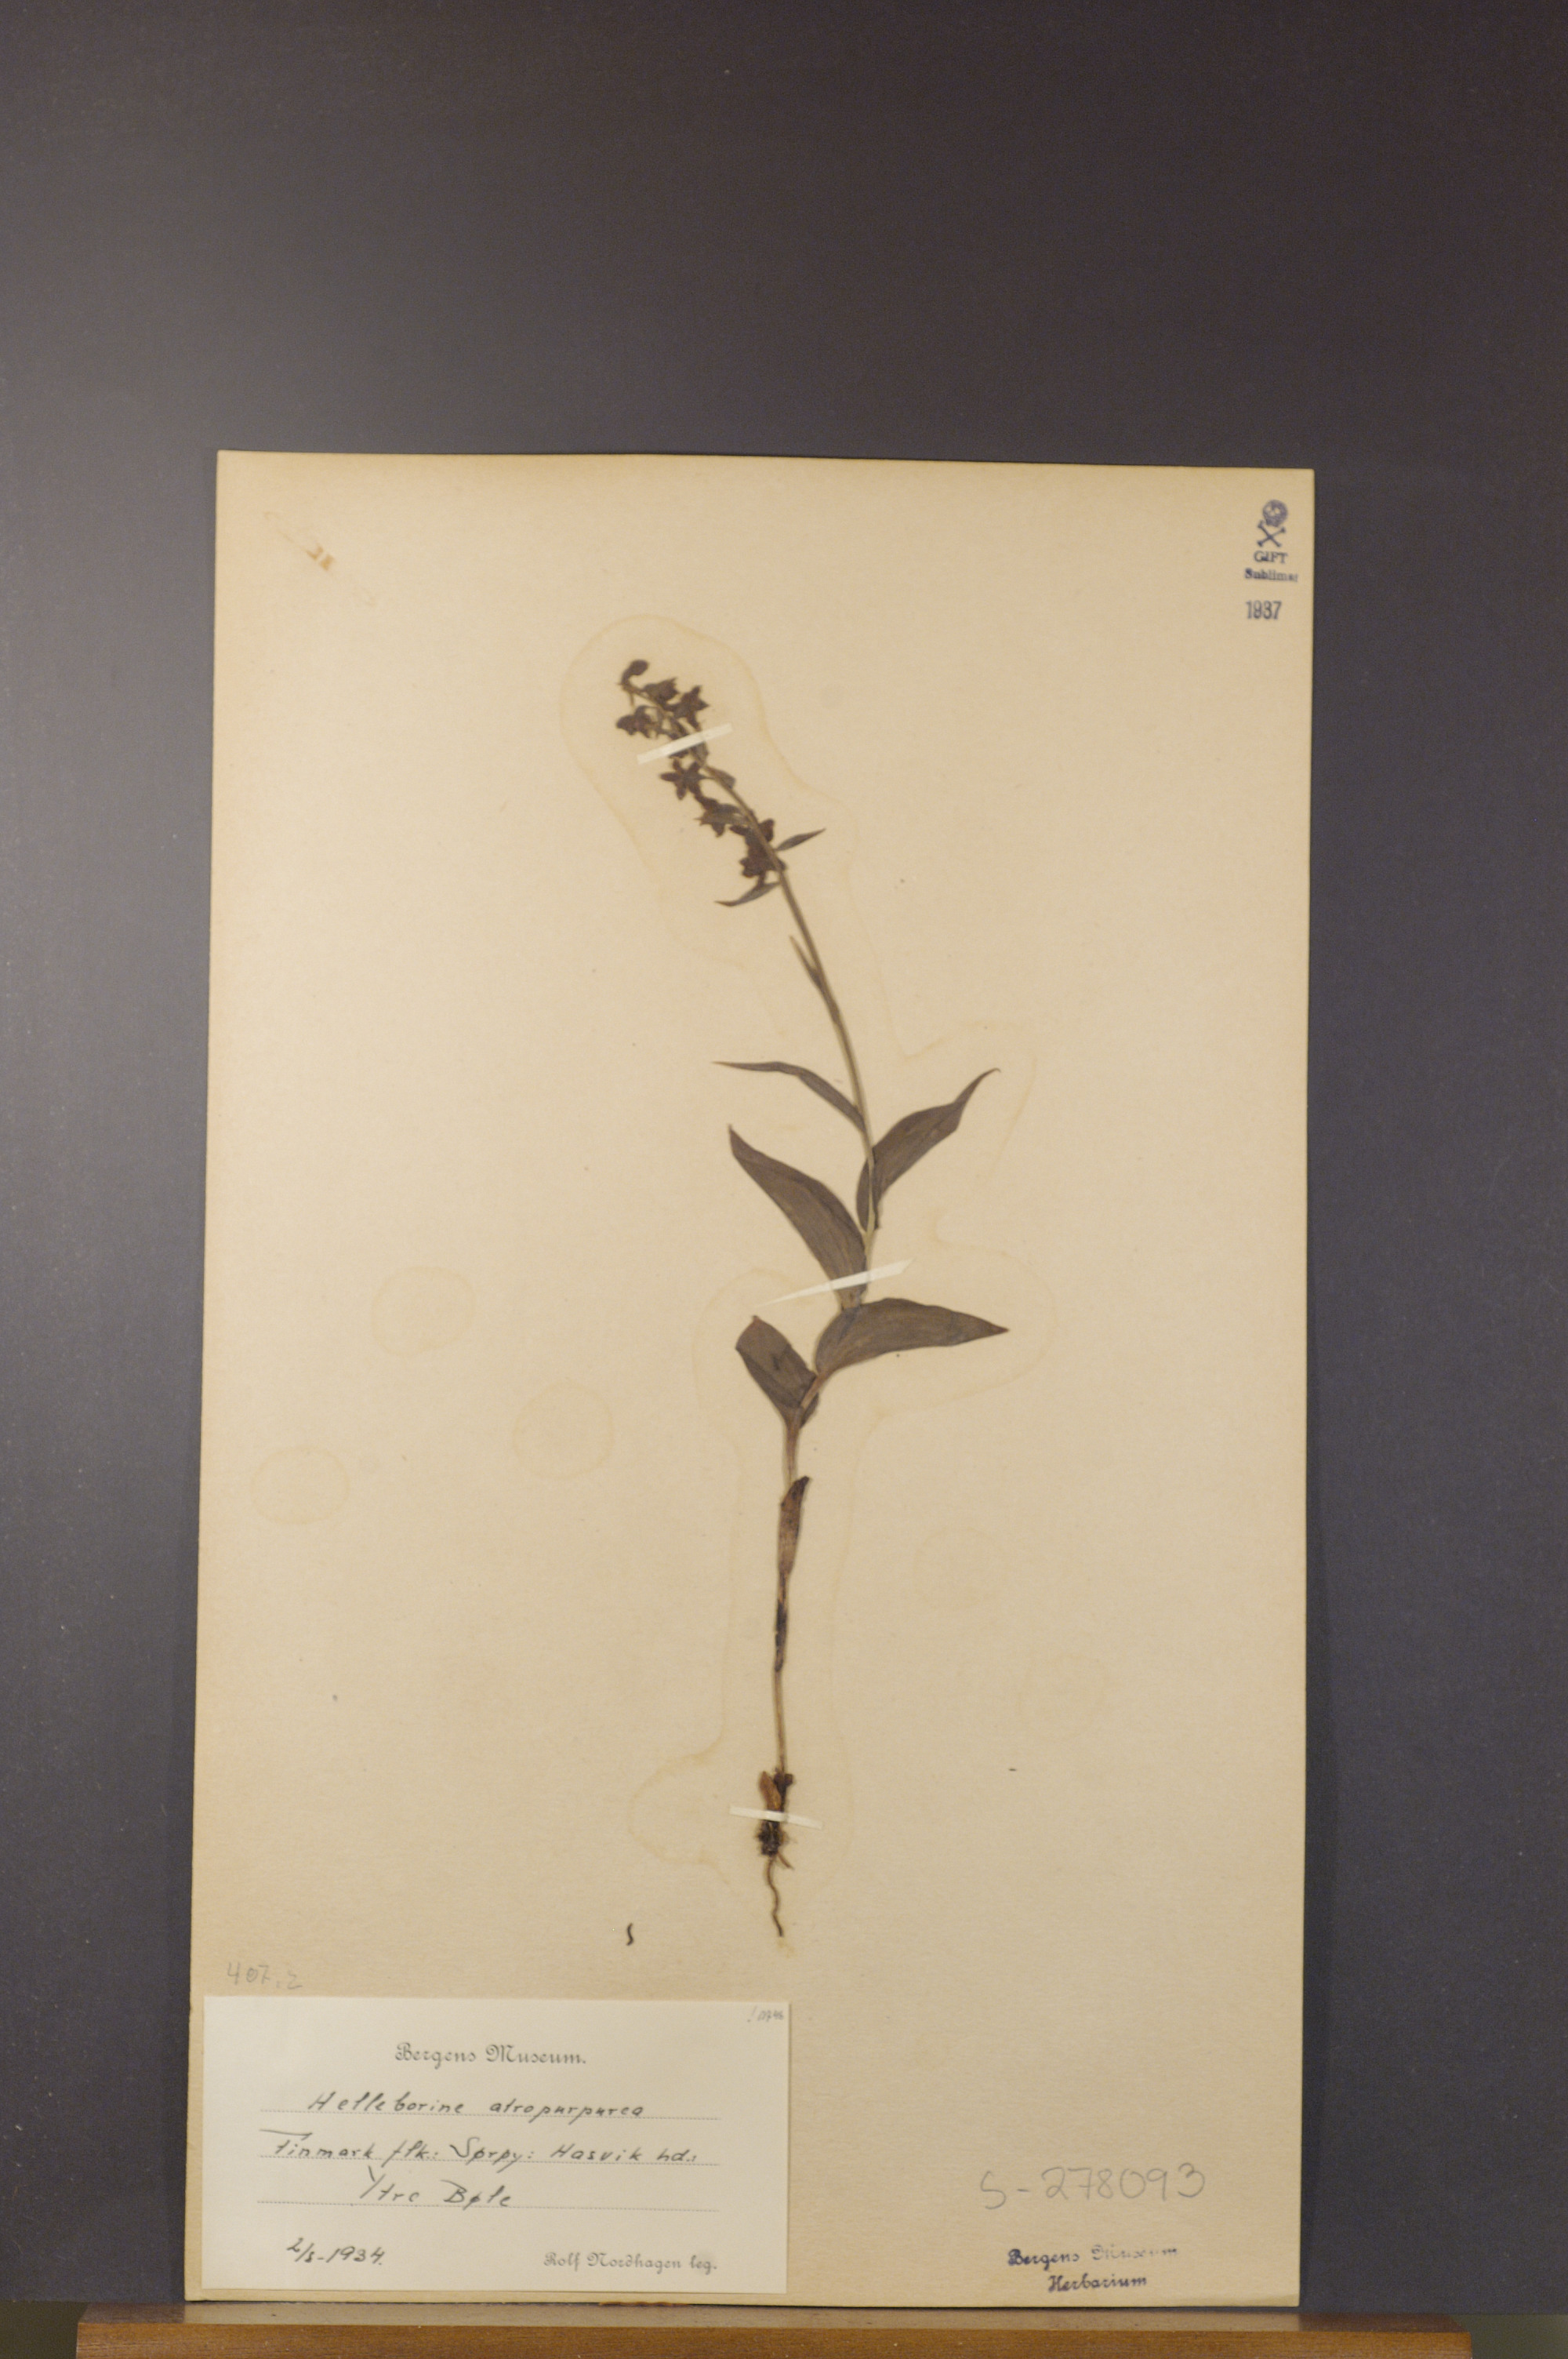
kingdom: Plantae
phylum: Tracheophyta
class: Liliopsida
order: Asparagales
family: Orchidaceae
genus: Epipactis
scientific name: Epipactis atrorubens
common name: Dark-red helleborine
